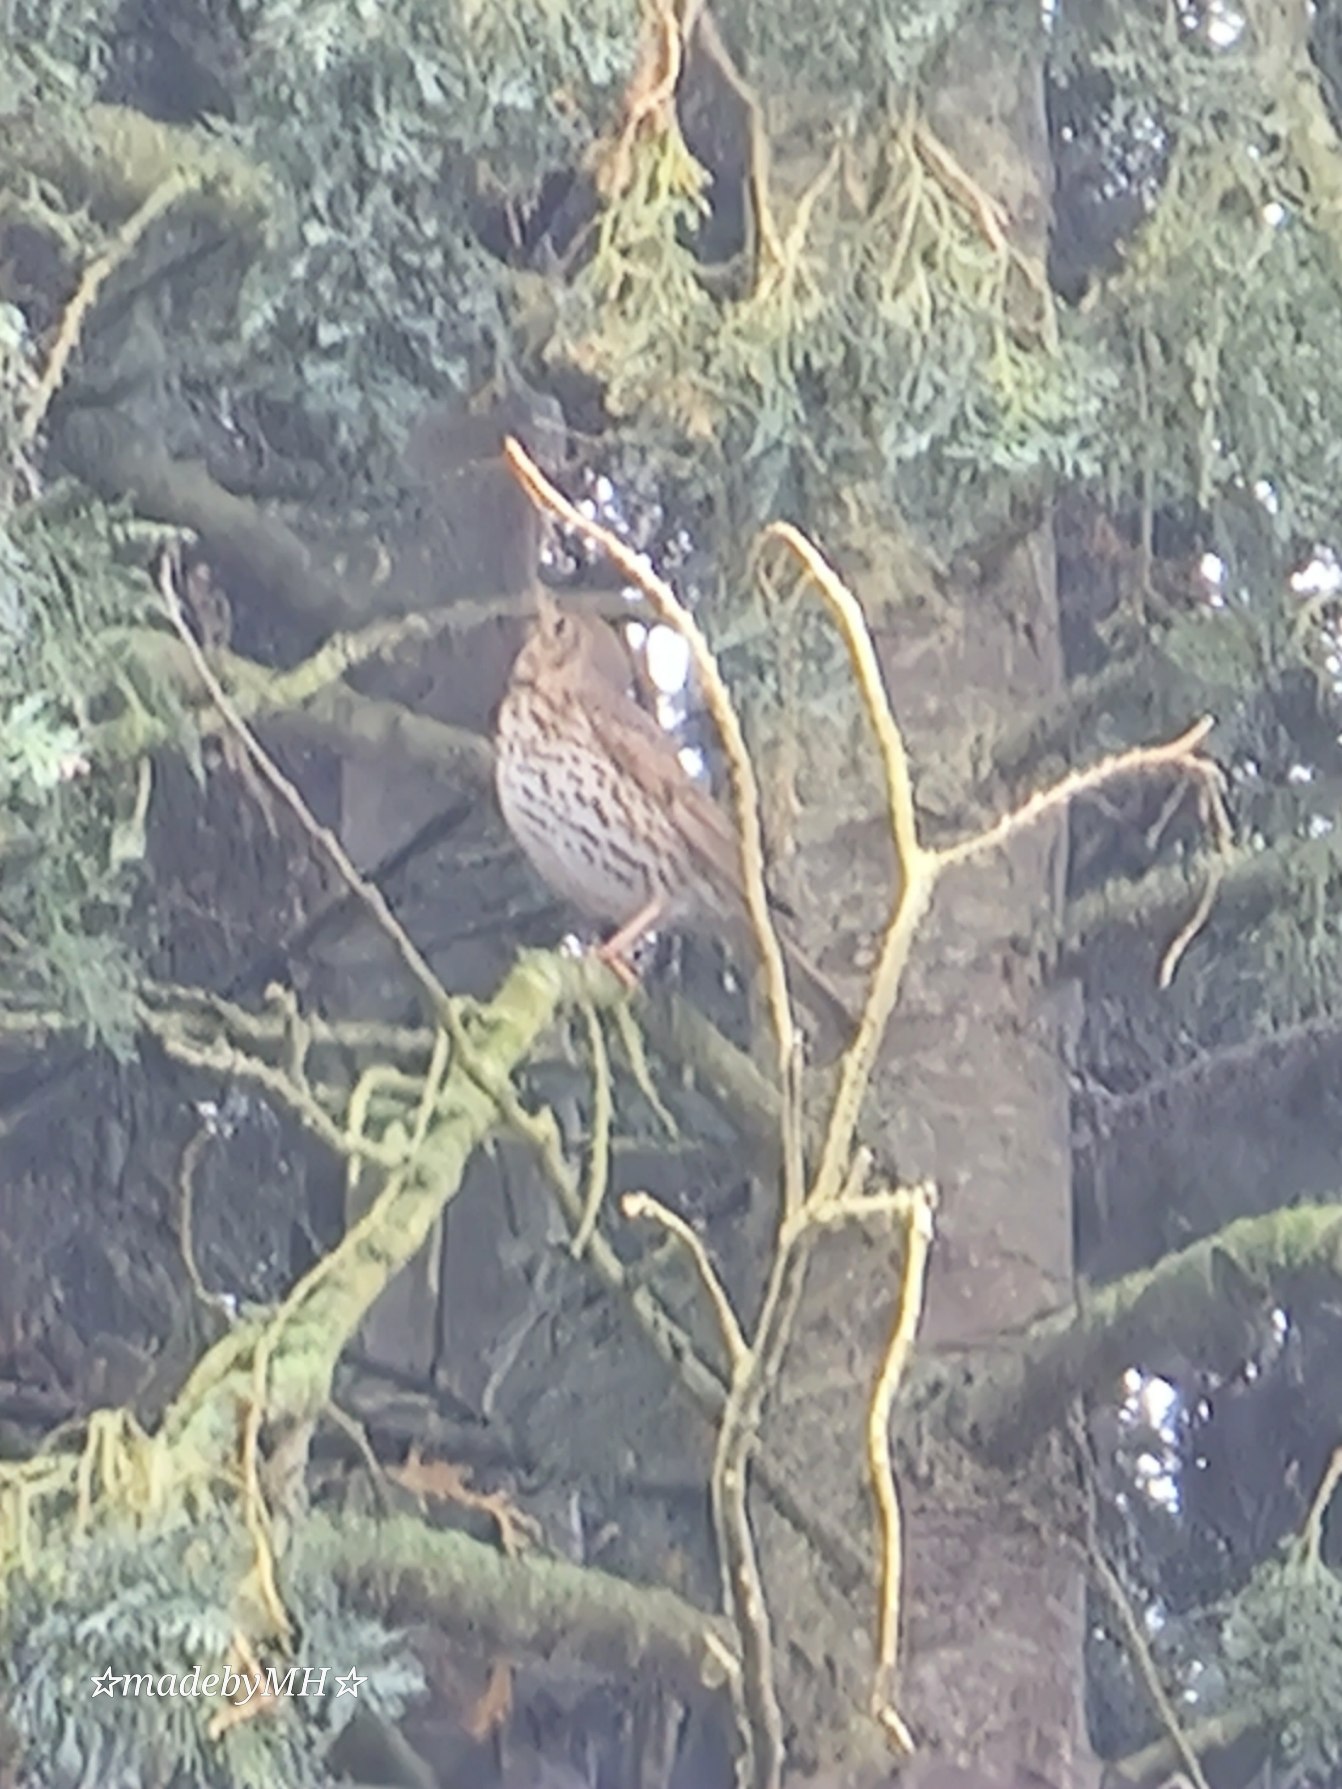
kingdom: Animalia
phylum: Chordata
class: Aves
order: Passeriformes
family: Turdidae
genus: Turdus
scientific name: Turdus philomelos
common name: Sangdrossel
